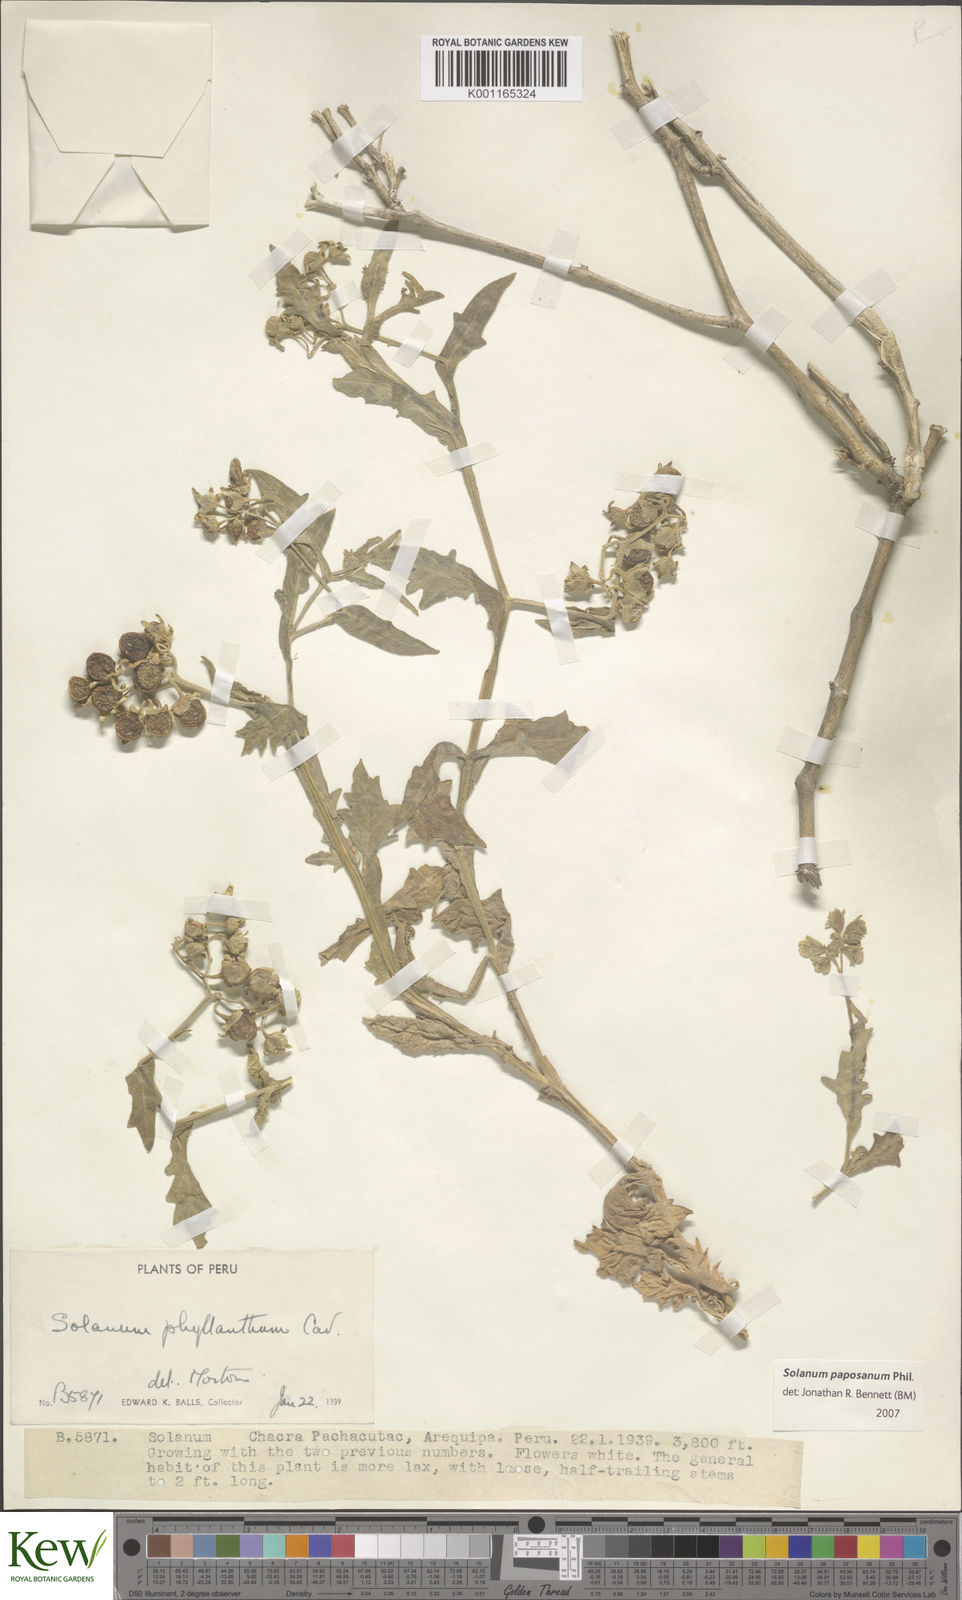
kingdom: Plantae
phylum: Tracheophyta
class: Magnoliopsida
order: Solanales
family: Solanaceae
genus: Solanum
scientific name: Solanum paposanum
